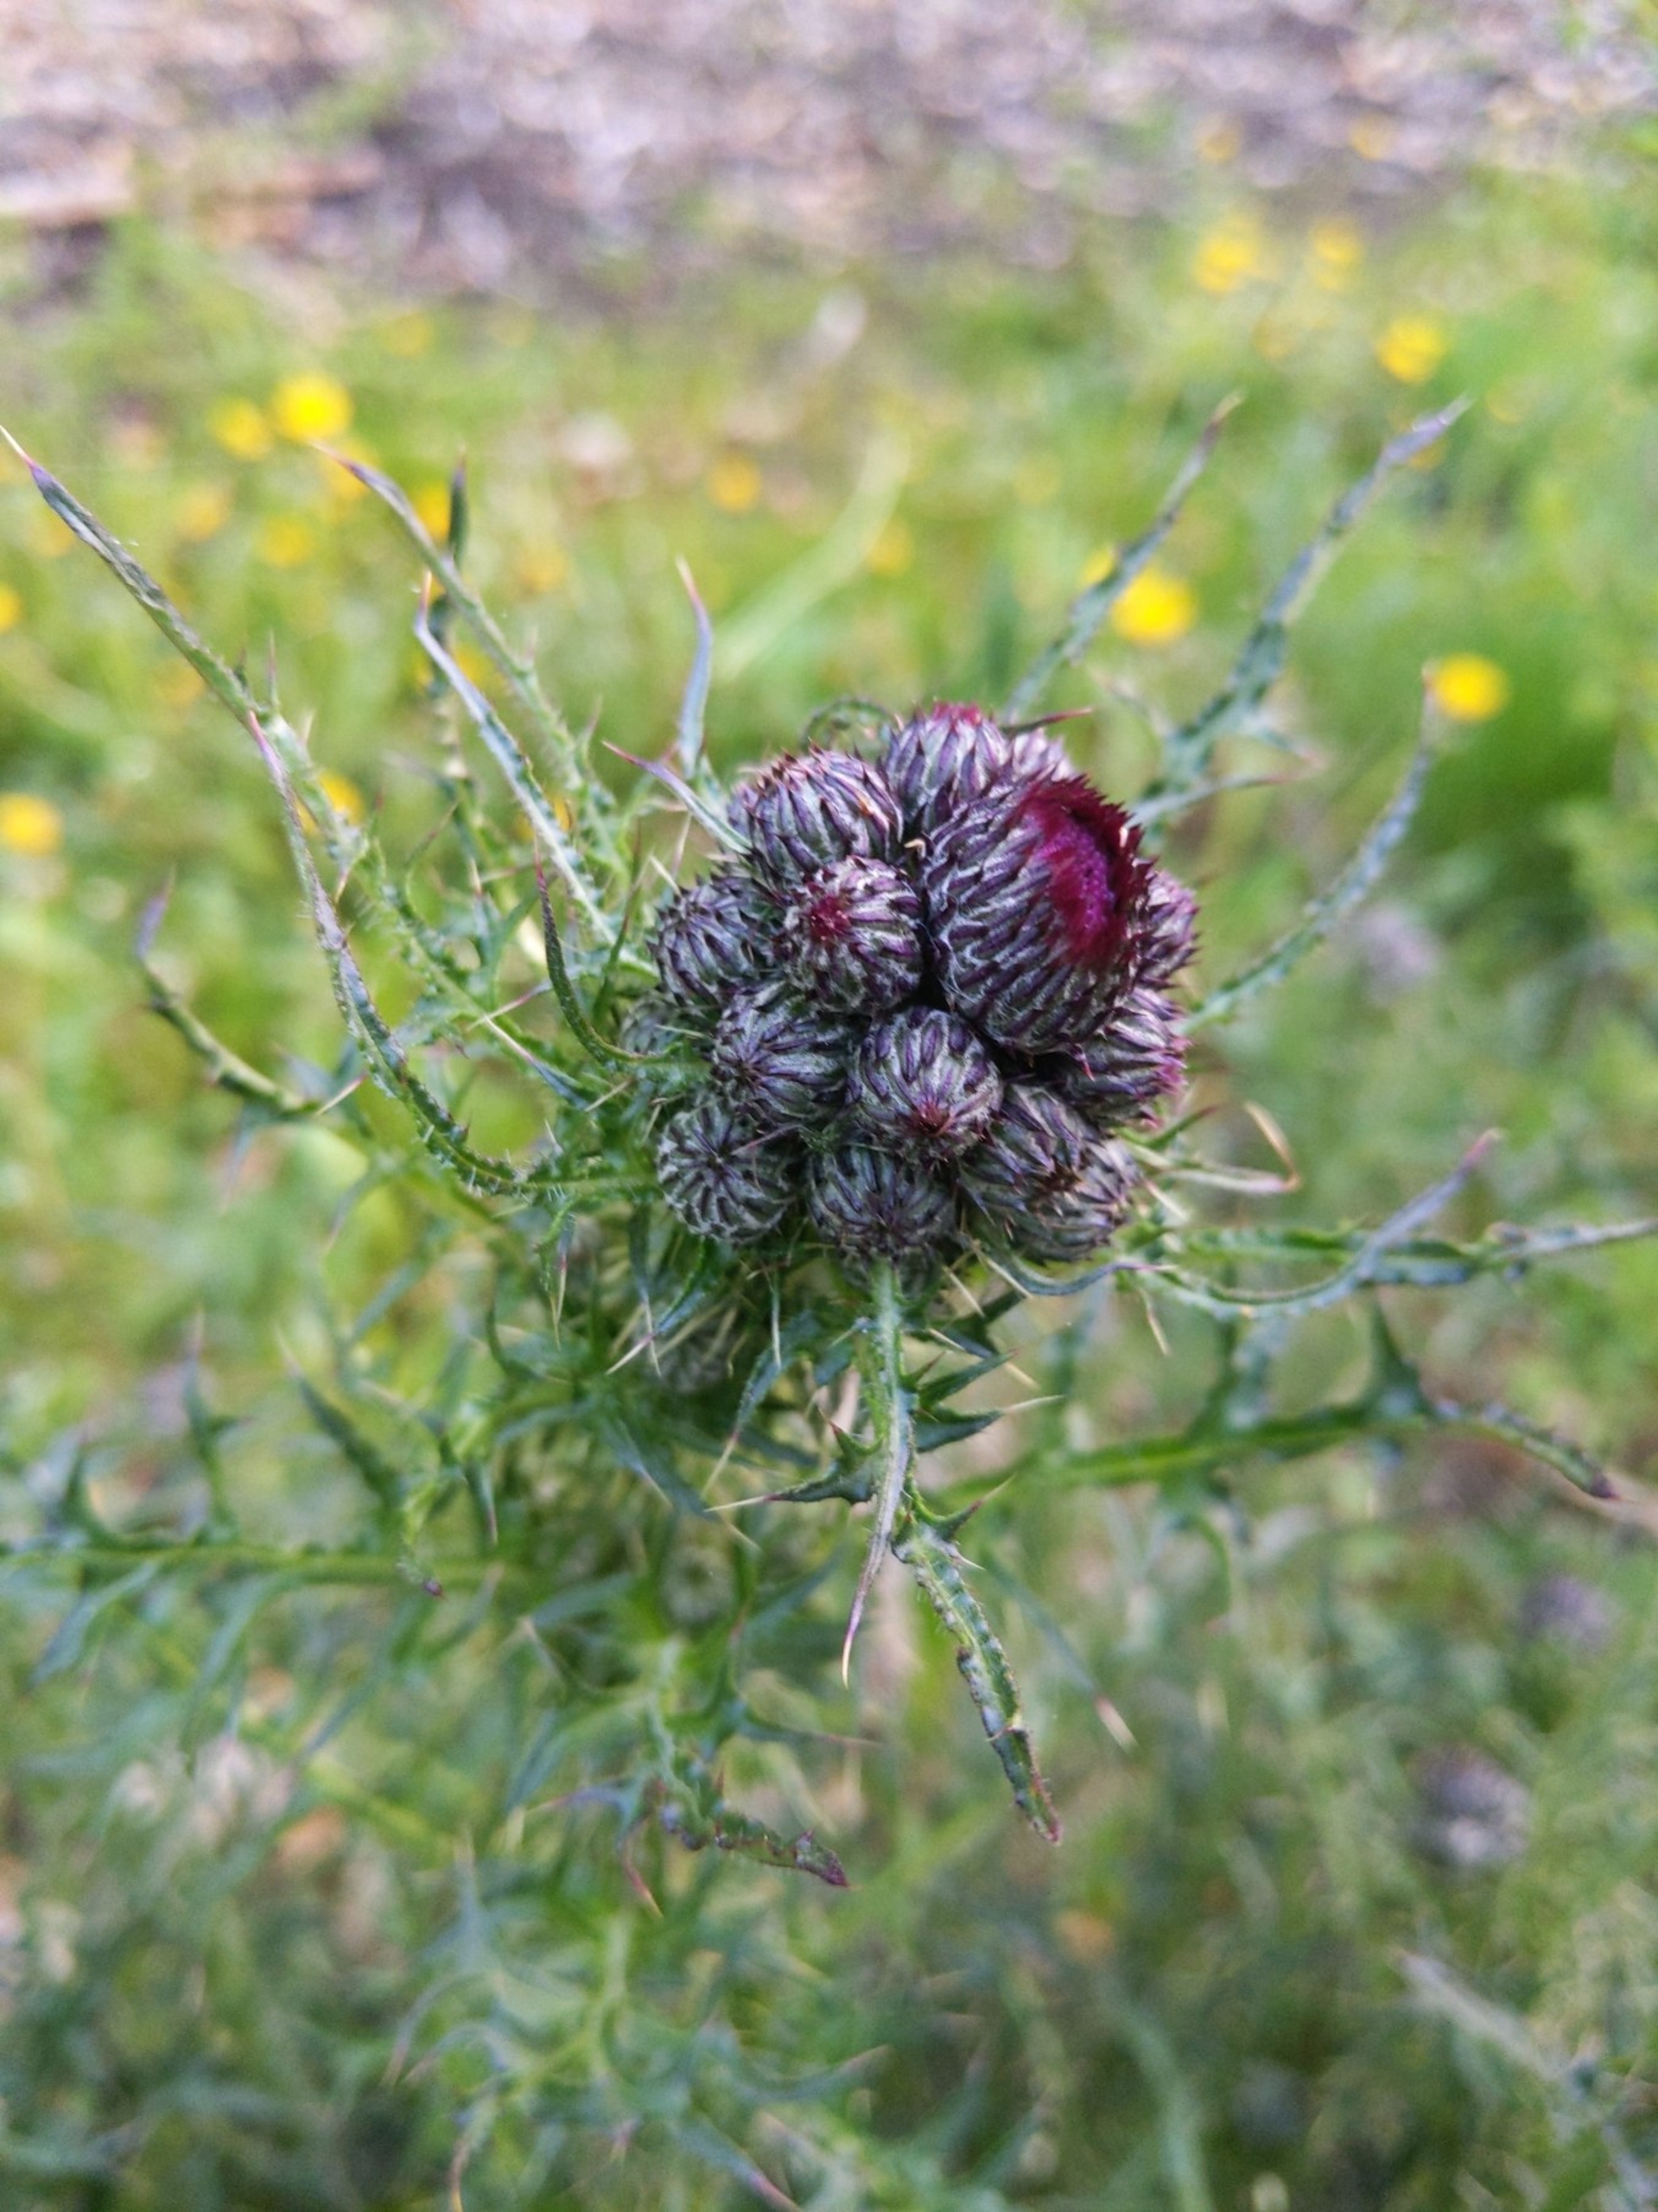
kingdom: Plantae
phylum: Tracheophyta
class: Magnoliopsida
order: Asterales
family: Asteraceae
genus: Cirsium
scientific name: Cirsium palustre
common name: Kær-tidsel
